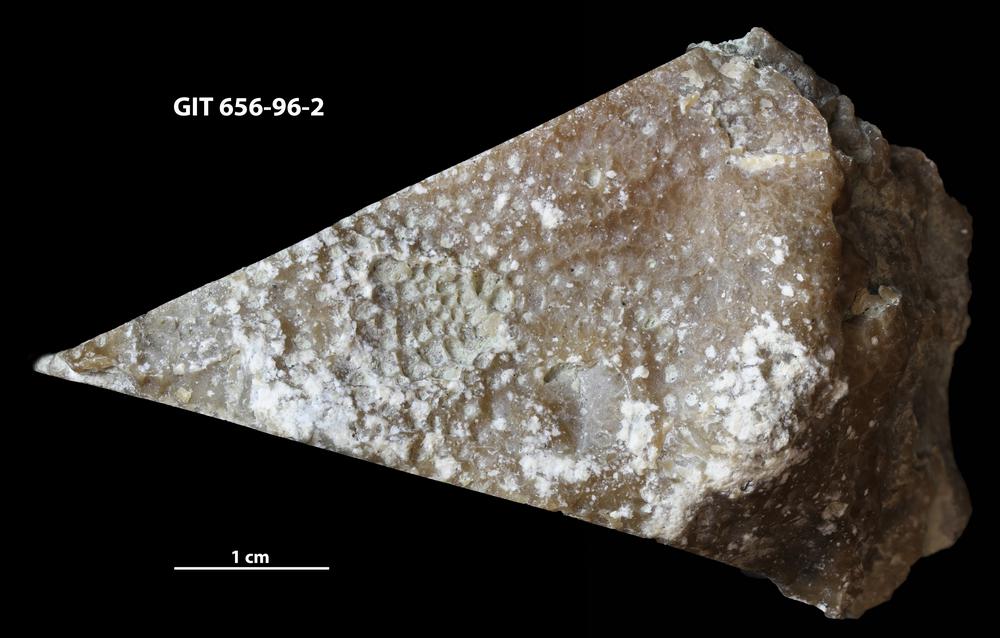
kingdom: Animalia
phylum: Cnidaria
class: Anthozoa
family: Favositidae
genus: Favosites
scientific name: Favosites
